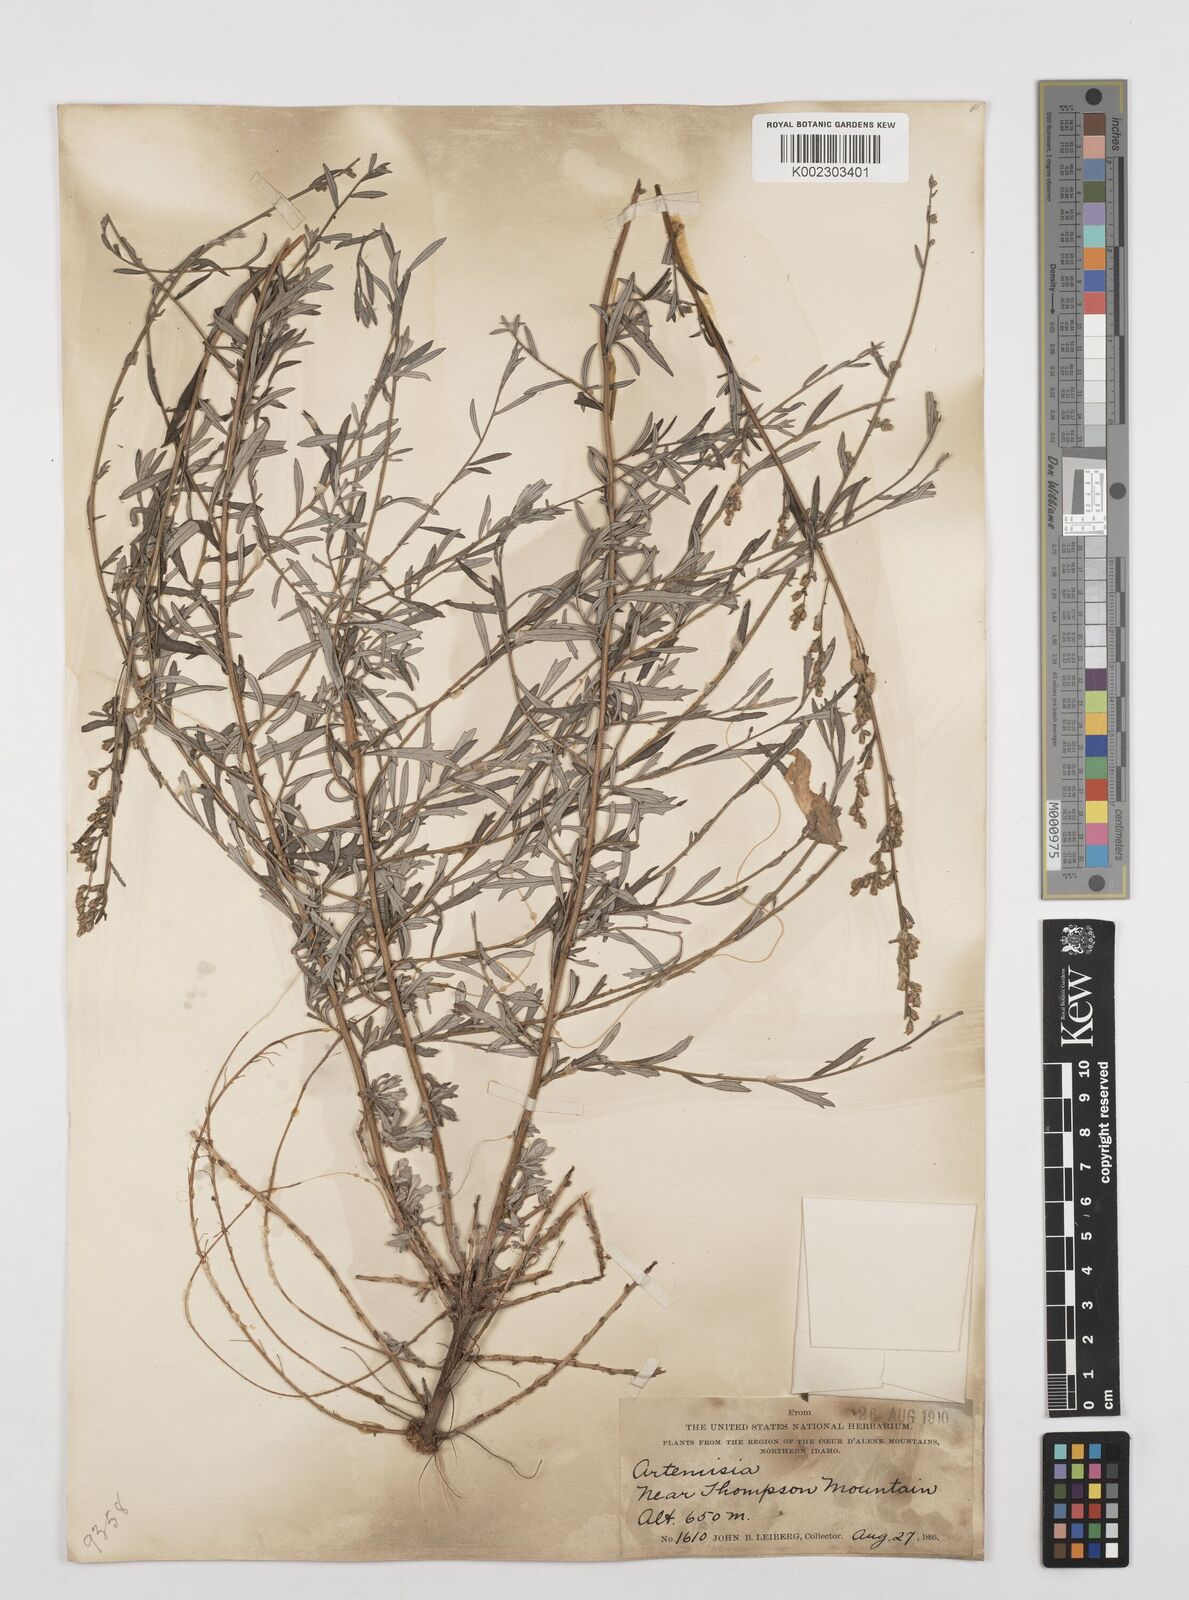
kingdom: Plantae
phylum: Tracheophyta
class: Magnoliopsida
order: Asterales
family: Asteraceae
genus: Artemisia
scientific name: Artemisia
